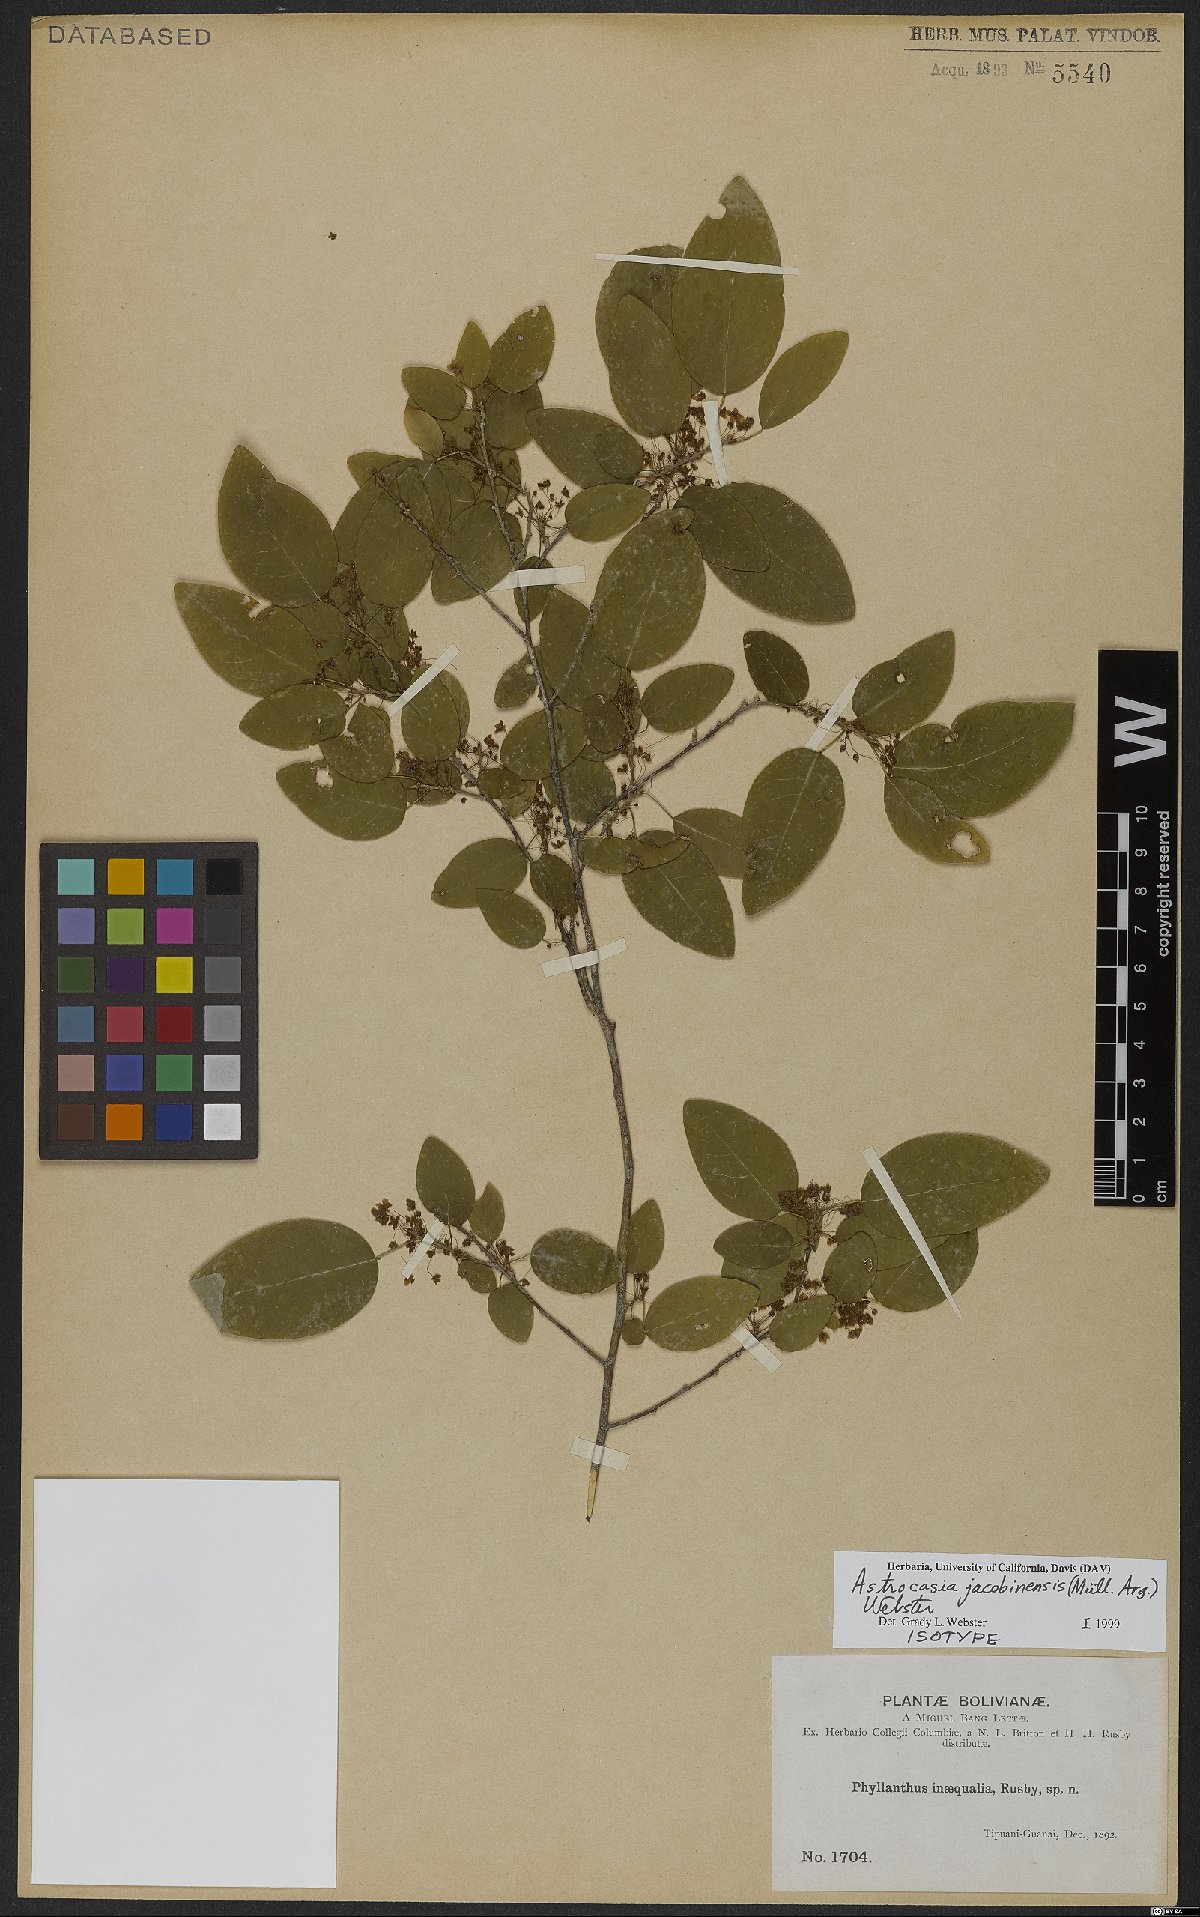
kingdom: Plantae
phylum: Tracheophyta
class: Magnoliopsida
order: Malpighiales
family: Phyllanthaceae
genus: Astrocasia
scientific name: Astrocasia jacobinensis
